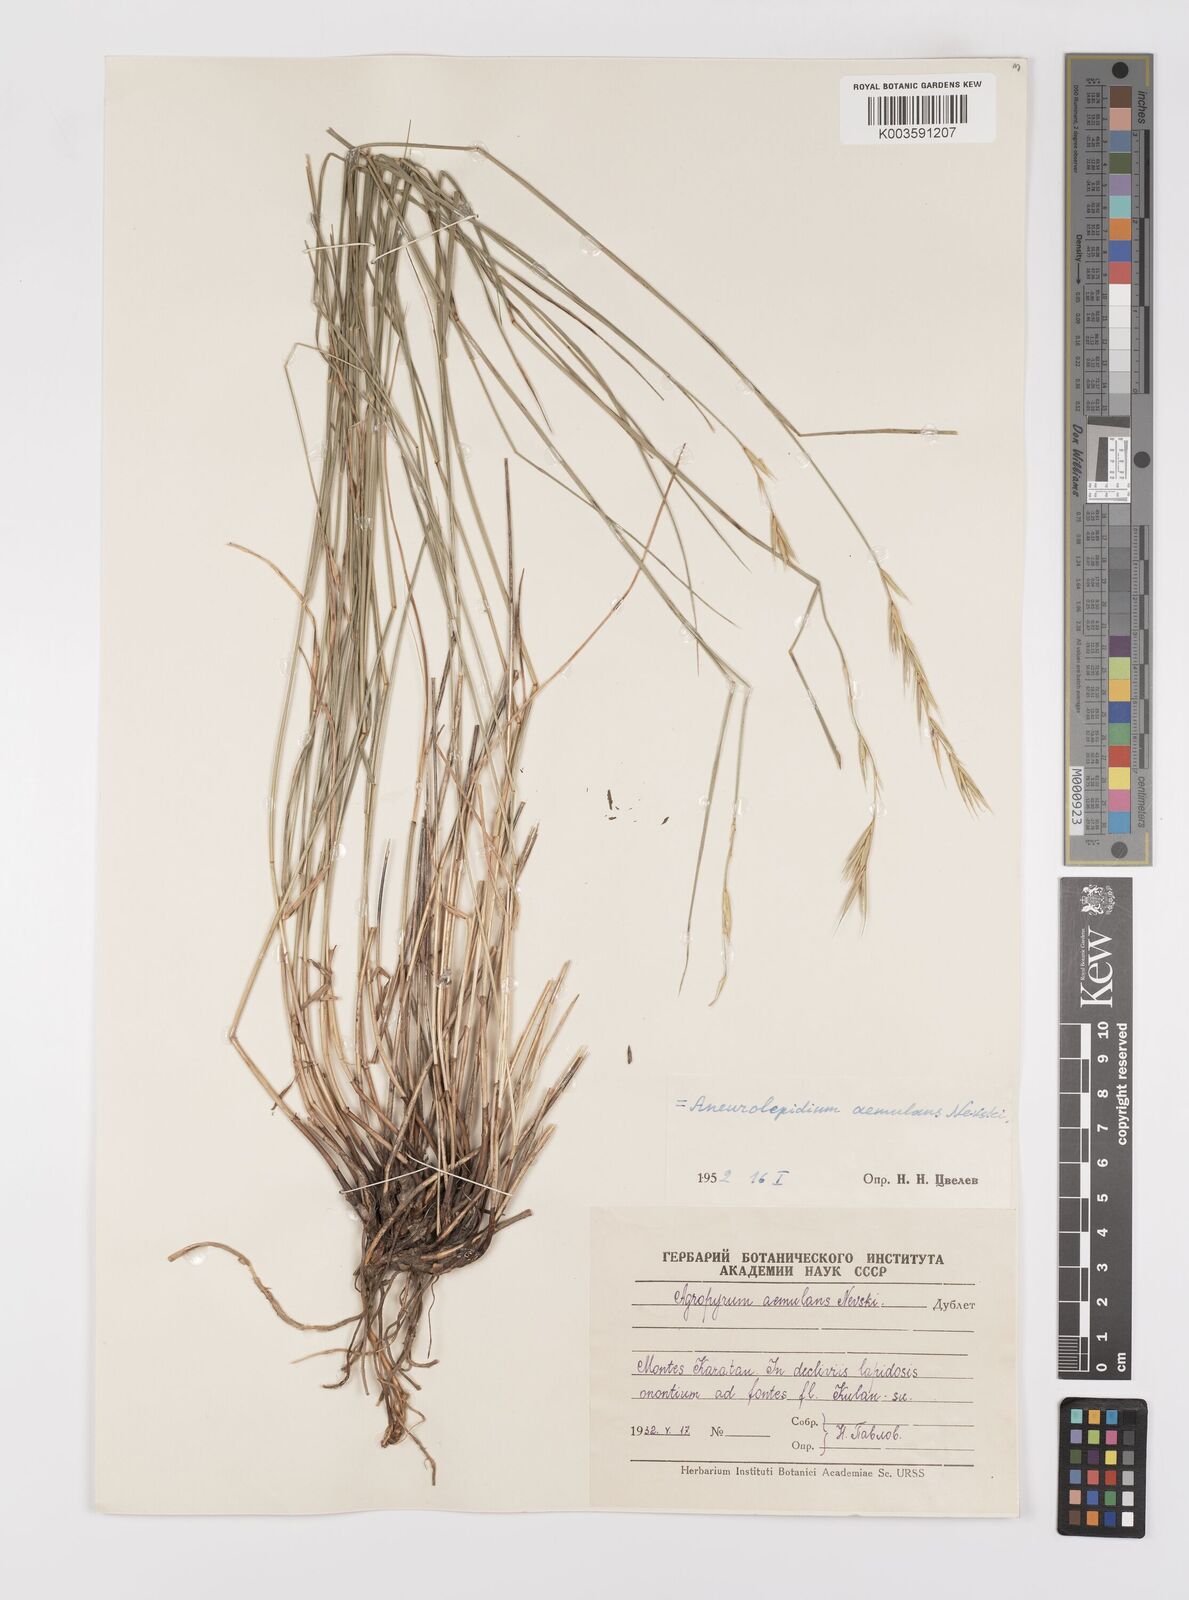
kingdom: Plantae
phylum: Tracheophyta
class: Liliopsida
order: Poales
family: Poaceae
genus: Leymus
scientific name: Leymus aemulans
